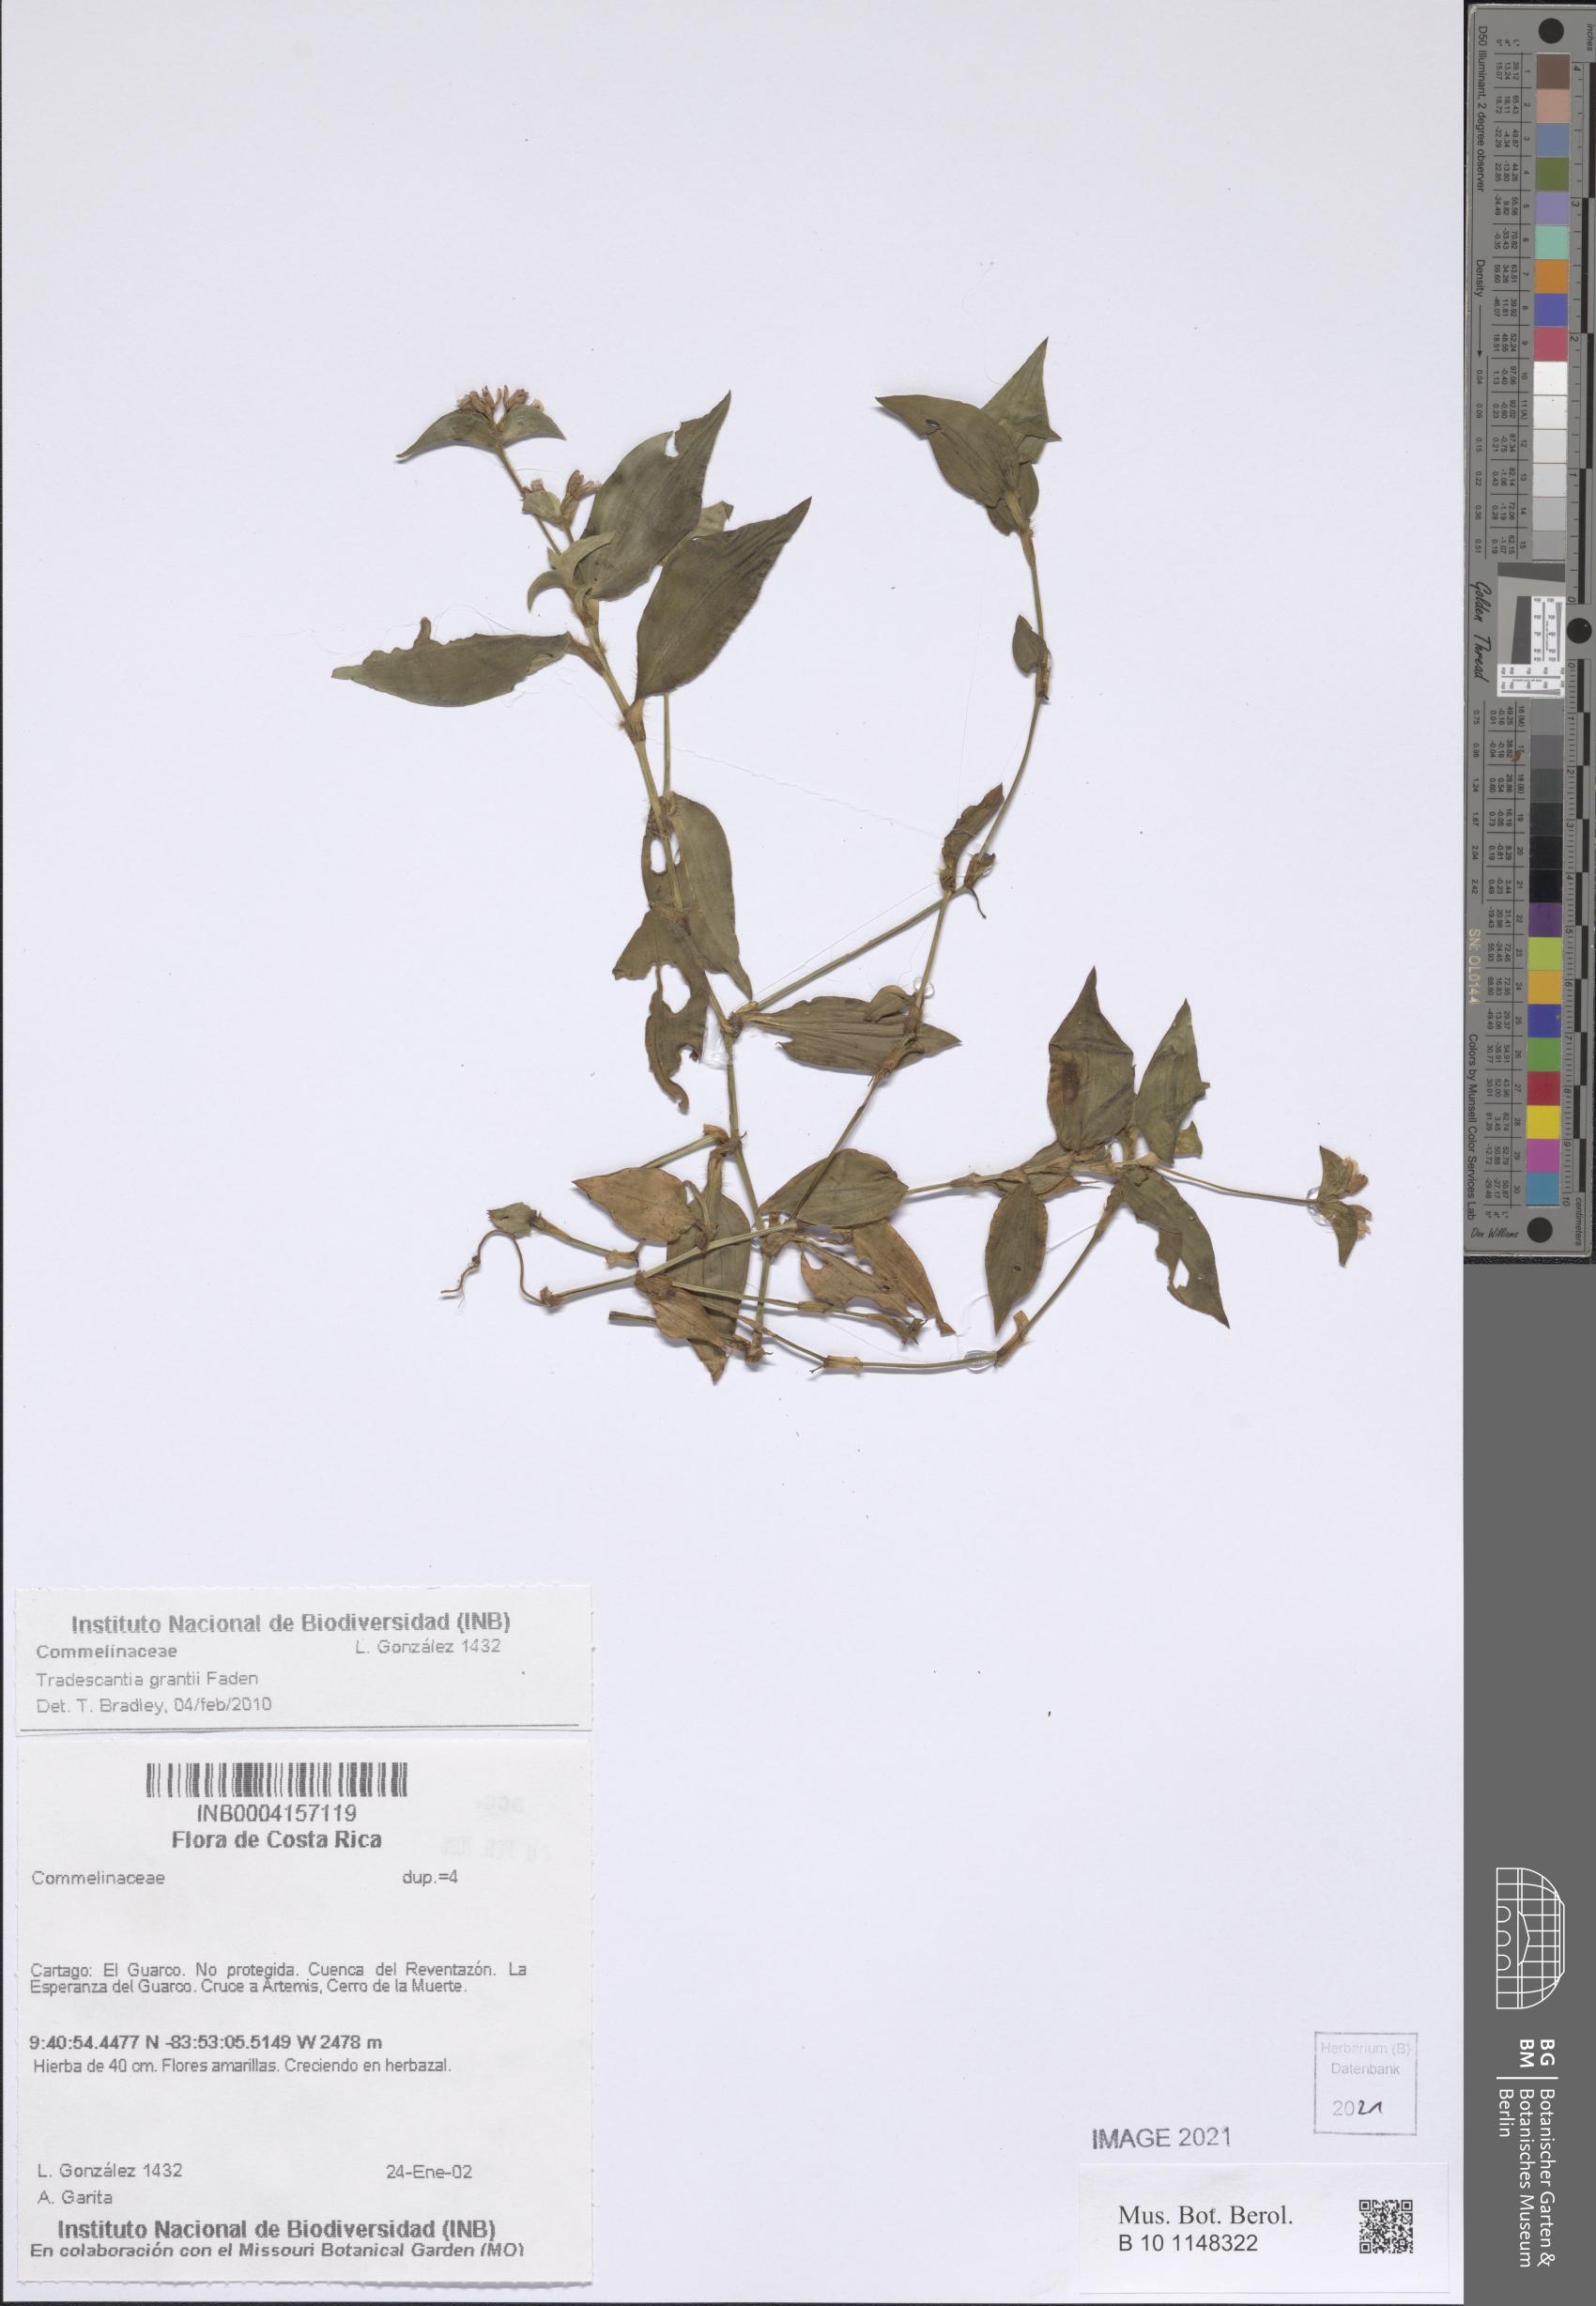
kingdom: Plantae
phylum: Tracheophyta
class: Liliopsida
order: Commelinales
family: Commelinaceae
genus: Tradescantia
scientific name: Tradescantia grantii
